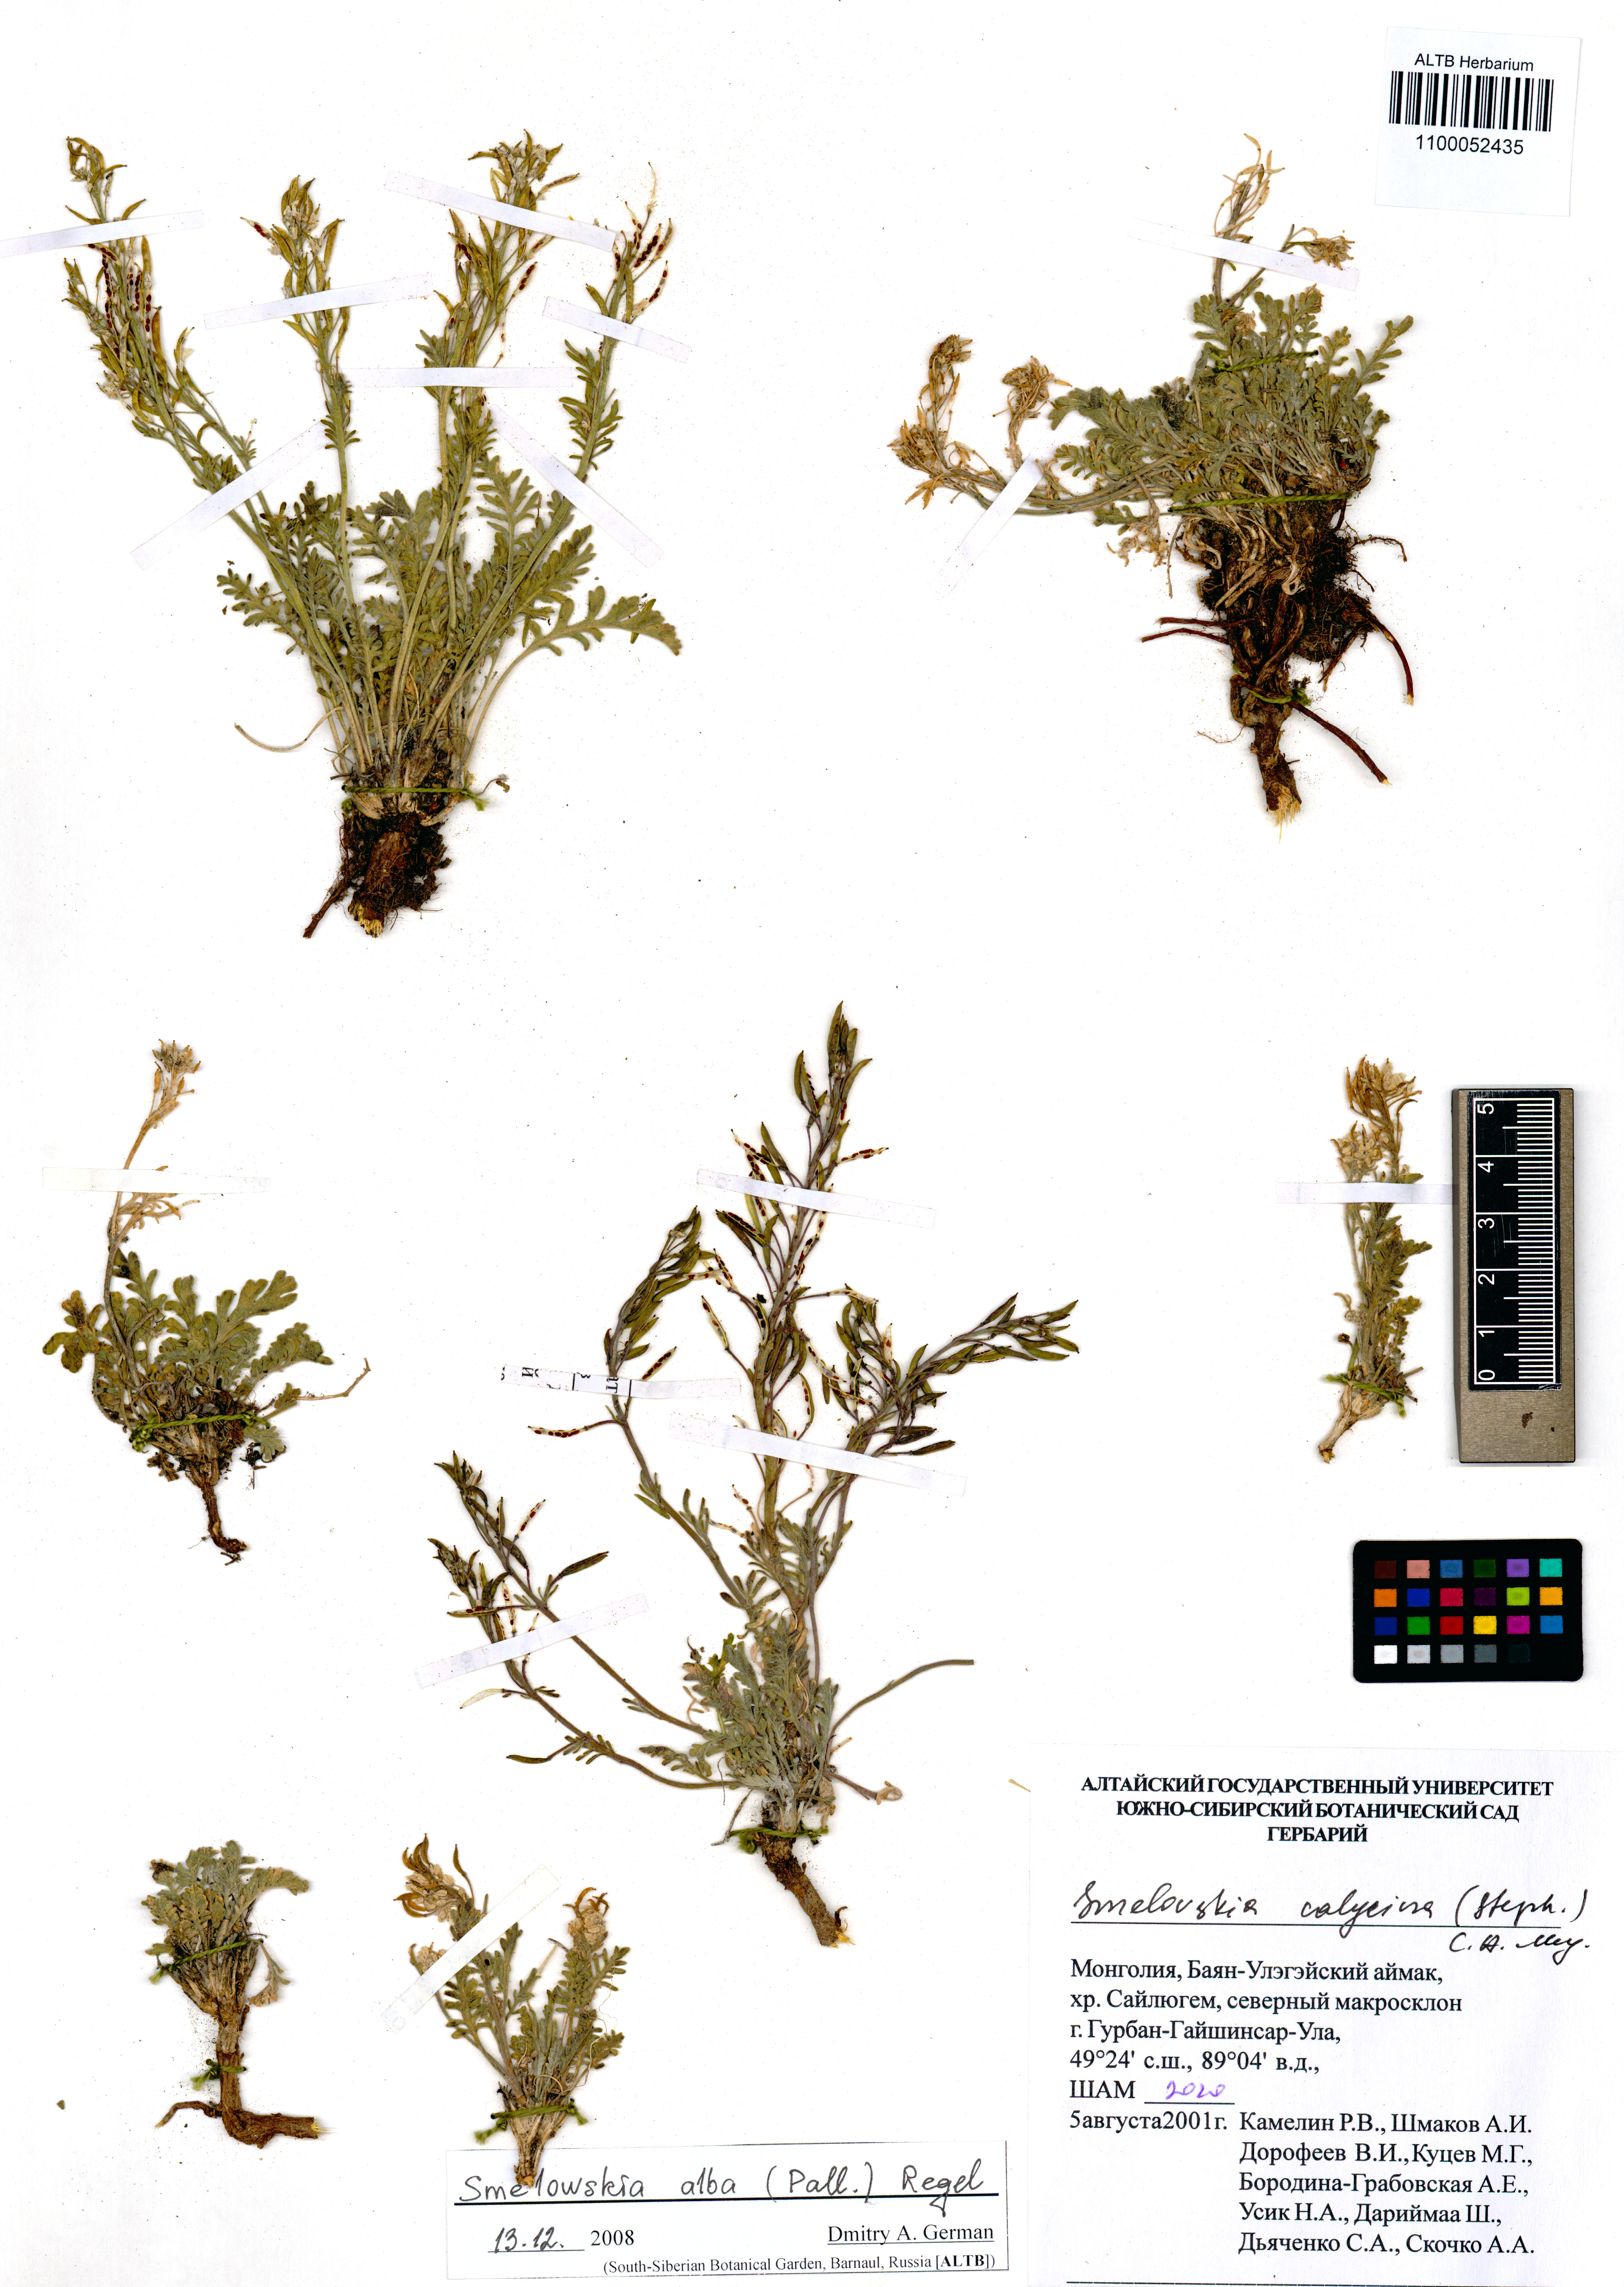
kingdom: Plantae
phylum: Tracheophyta
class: Magnoliopsida
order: Brassicales
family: Brassicaceae
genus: Smelowskia
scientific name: Smelowskia alba
